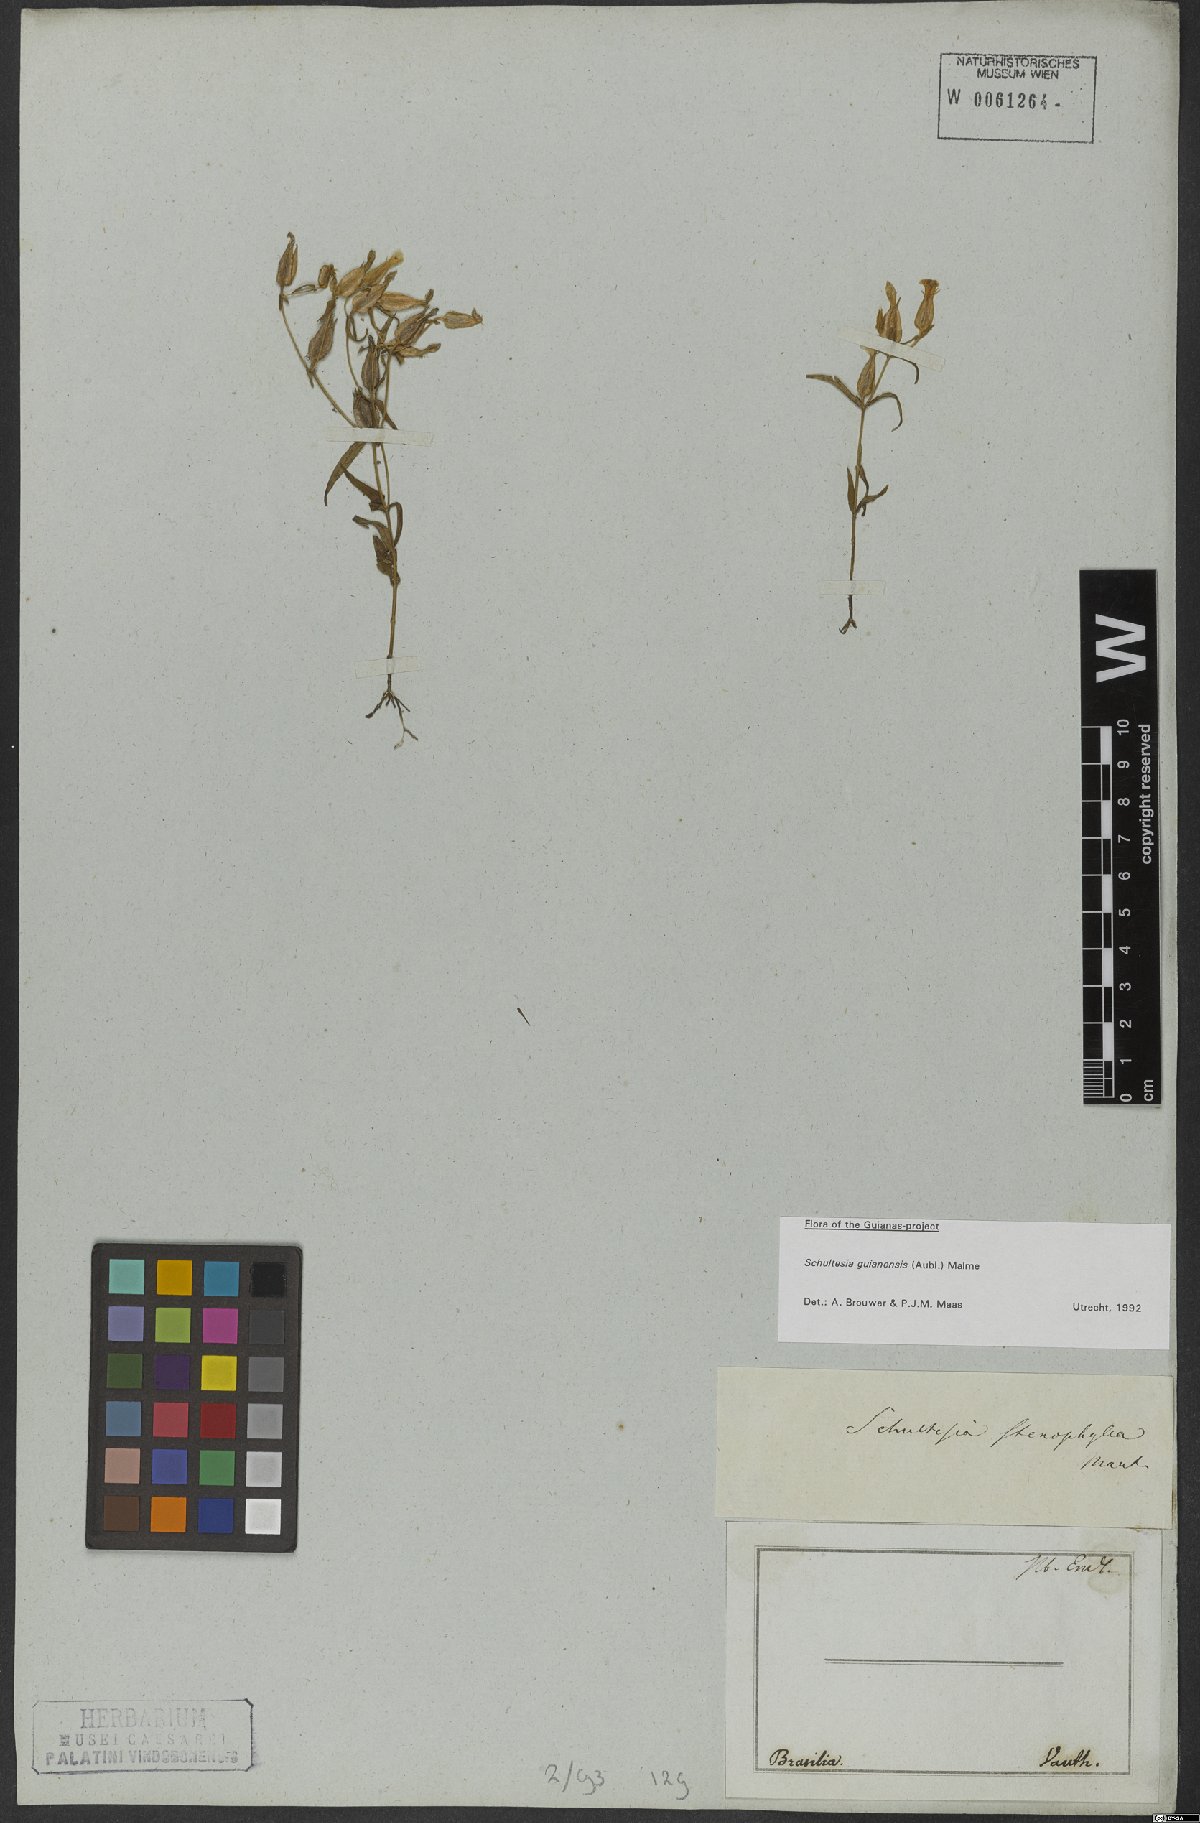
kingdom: Plantae
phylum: Tracheophyta
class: Magnoliopsida
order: Gentianales
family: Gentianaceae
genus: Schultesia
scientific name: Schultesia guianensis
